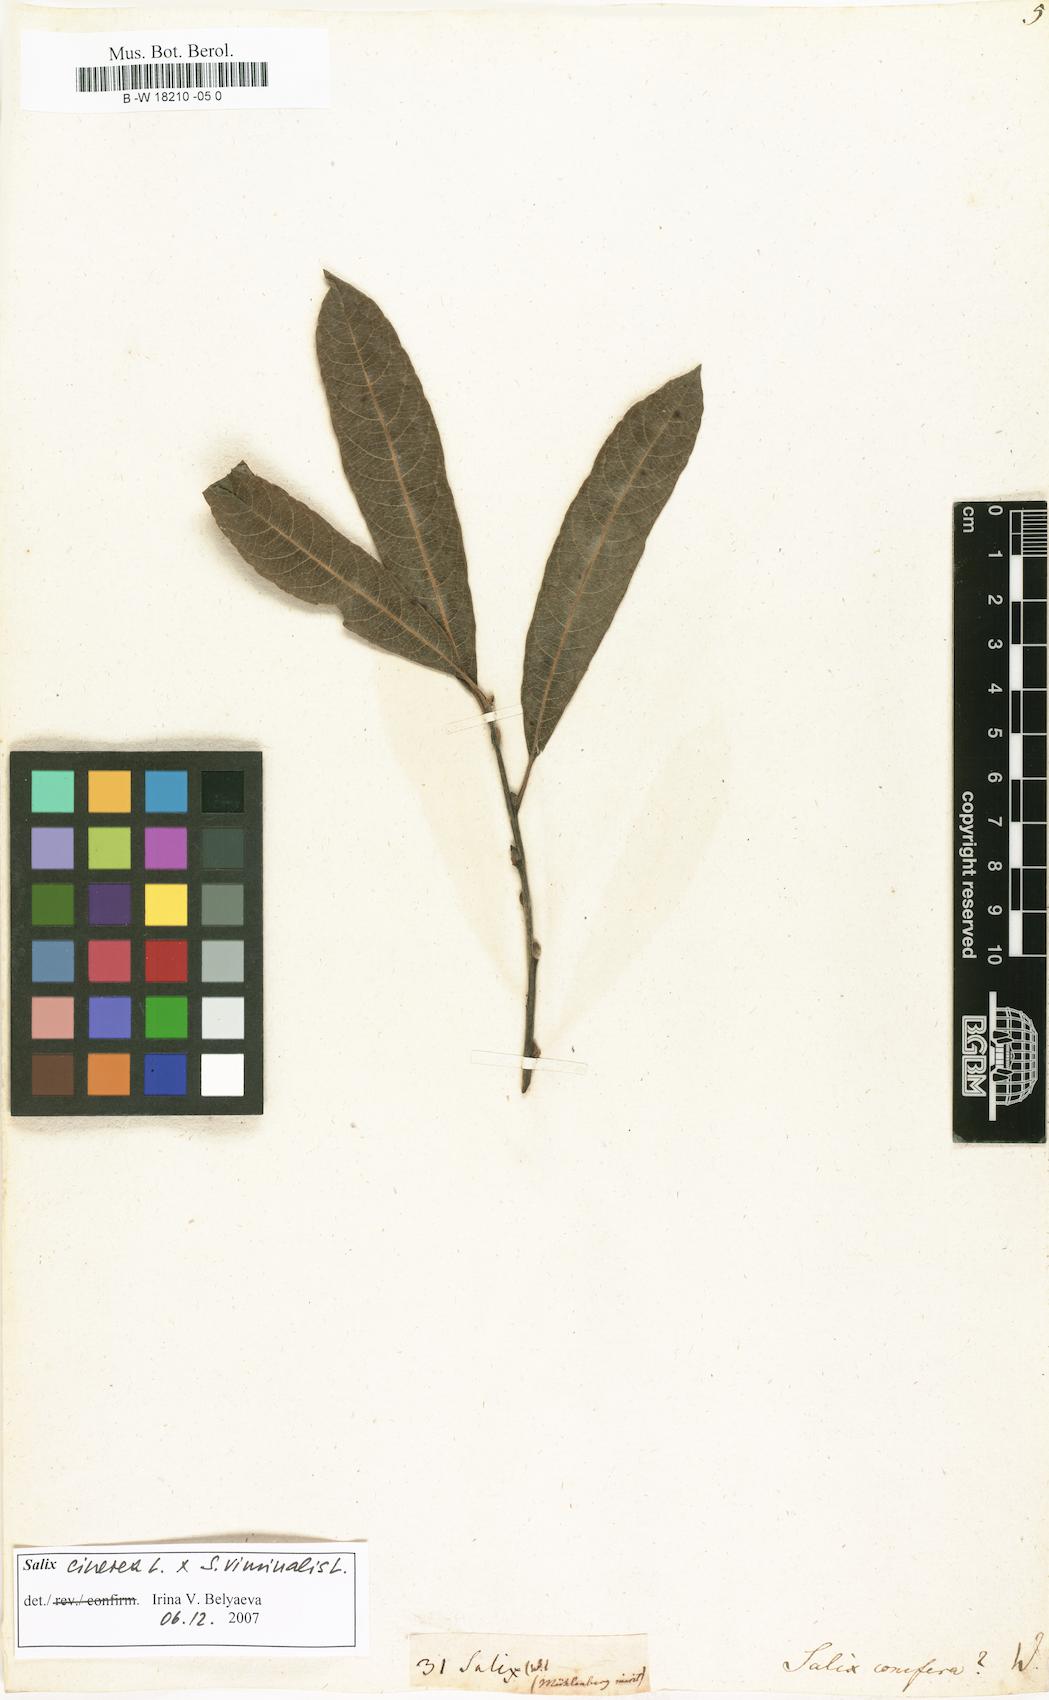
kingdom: Plantae
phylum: Tracheophyta
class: Magnoliopsida
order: Malpighiales
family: Salicaceae
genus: Salix
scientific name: Salix conifera
